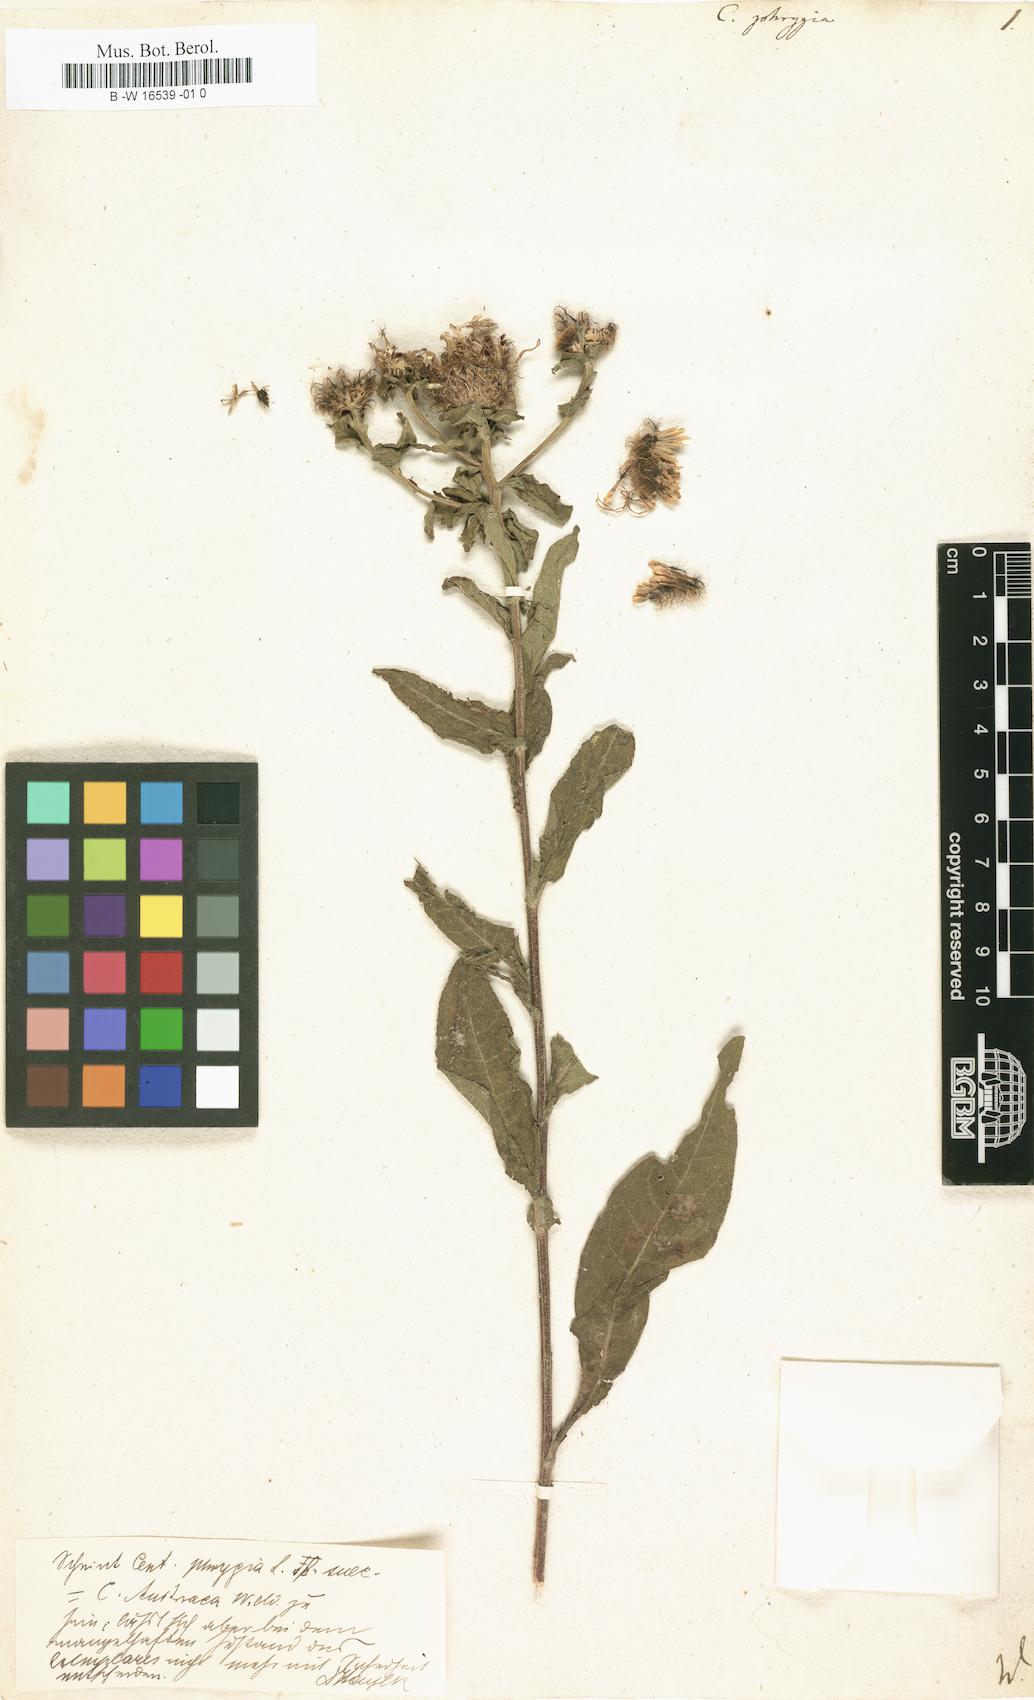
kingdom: Plantae
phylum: Tracheophyta
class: Magnoliopsida
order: Asterales
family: Asteraceae
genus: Centaurea
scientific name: Centaurea phrygia
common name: Wig knapweed
